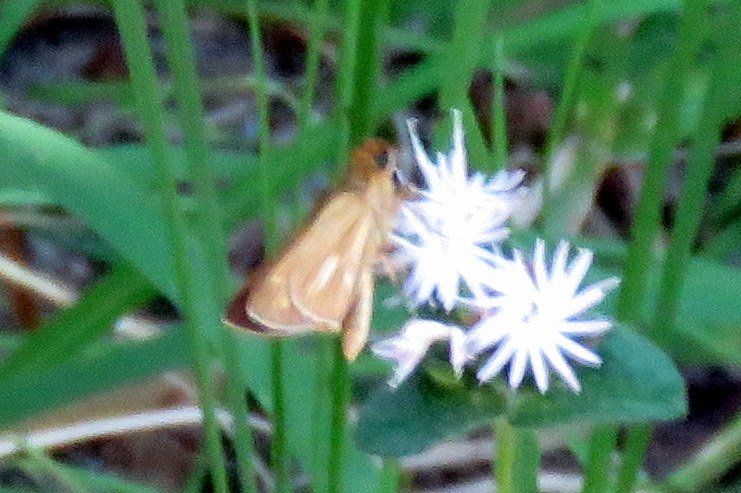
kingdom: Animalia
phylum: Arthropoda
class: Insecta
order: Lepidoptera
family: Hesperiidae
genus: Panoquina
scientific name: Panoquina panoquin
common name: Salt Marsh Skipper
